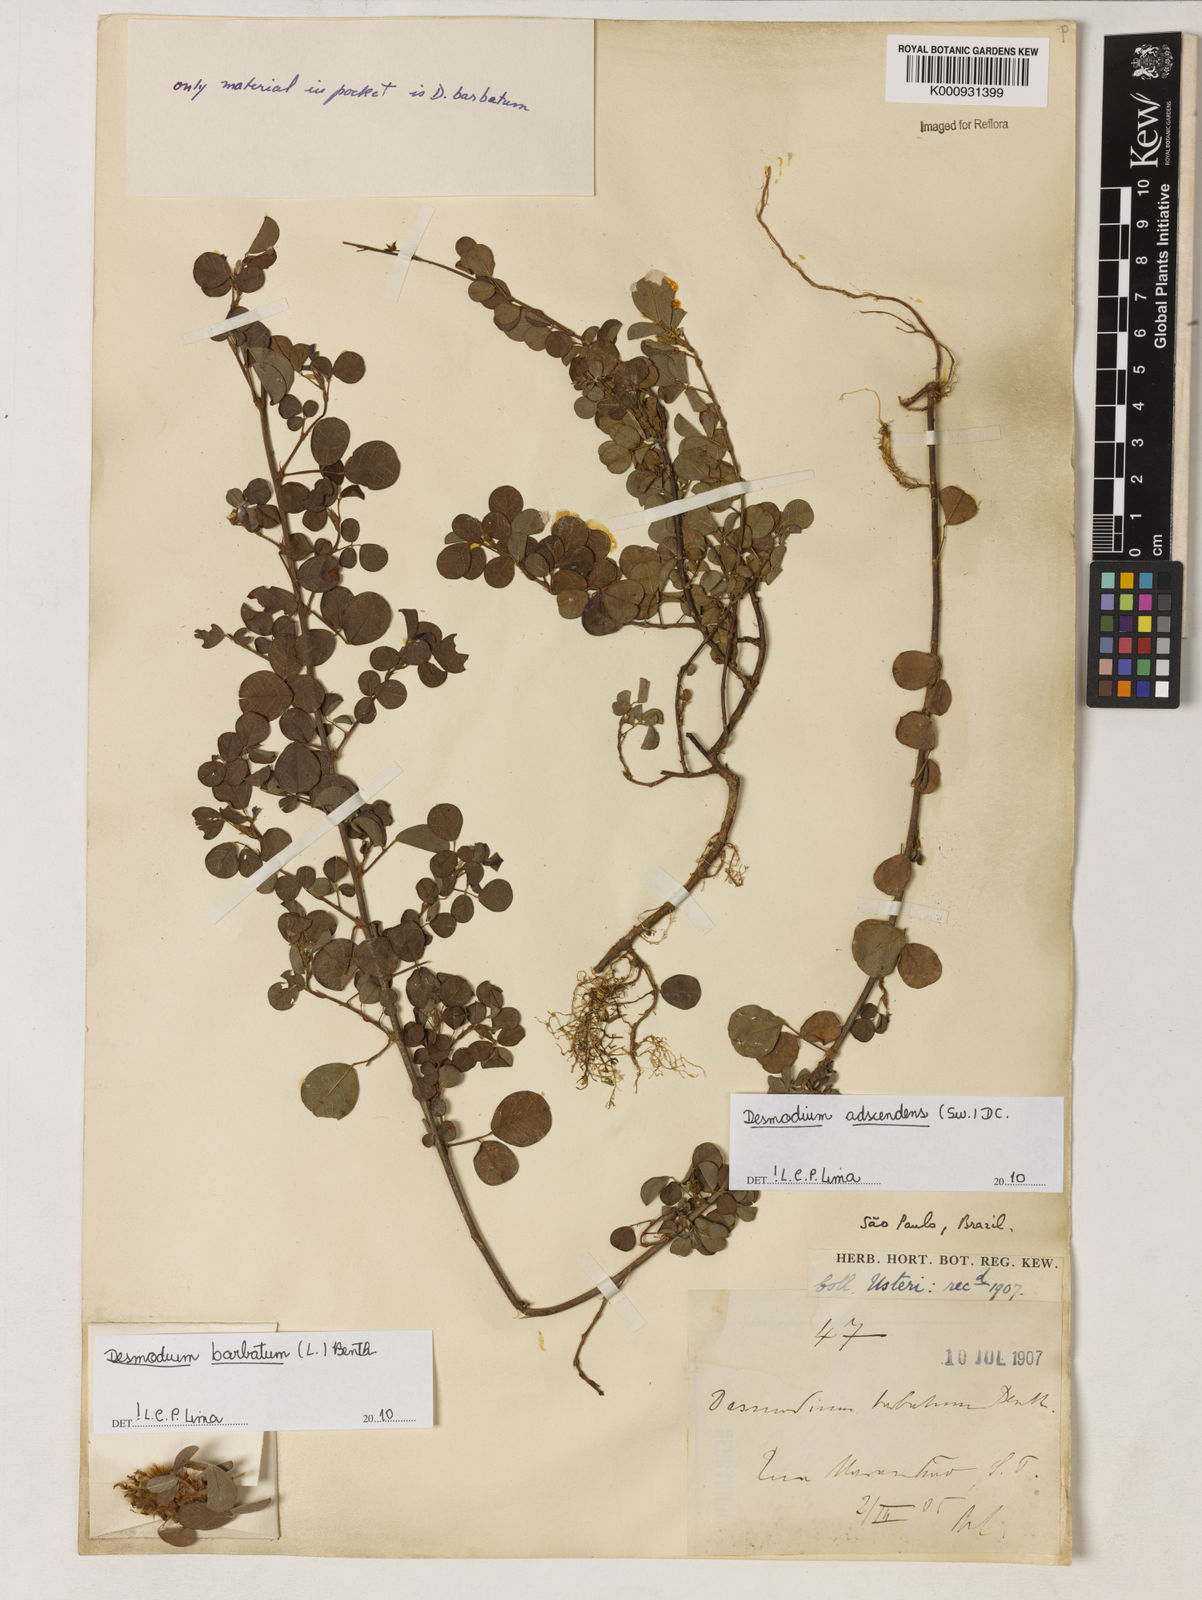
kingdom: Plantae
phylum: Tracheophyta
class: Magnoliopsida
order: Fabales
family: Fabaceae
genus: Grona
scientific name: Grona adscendens
